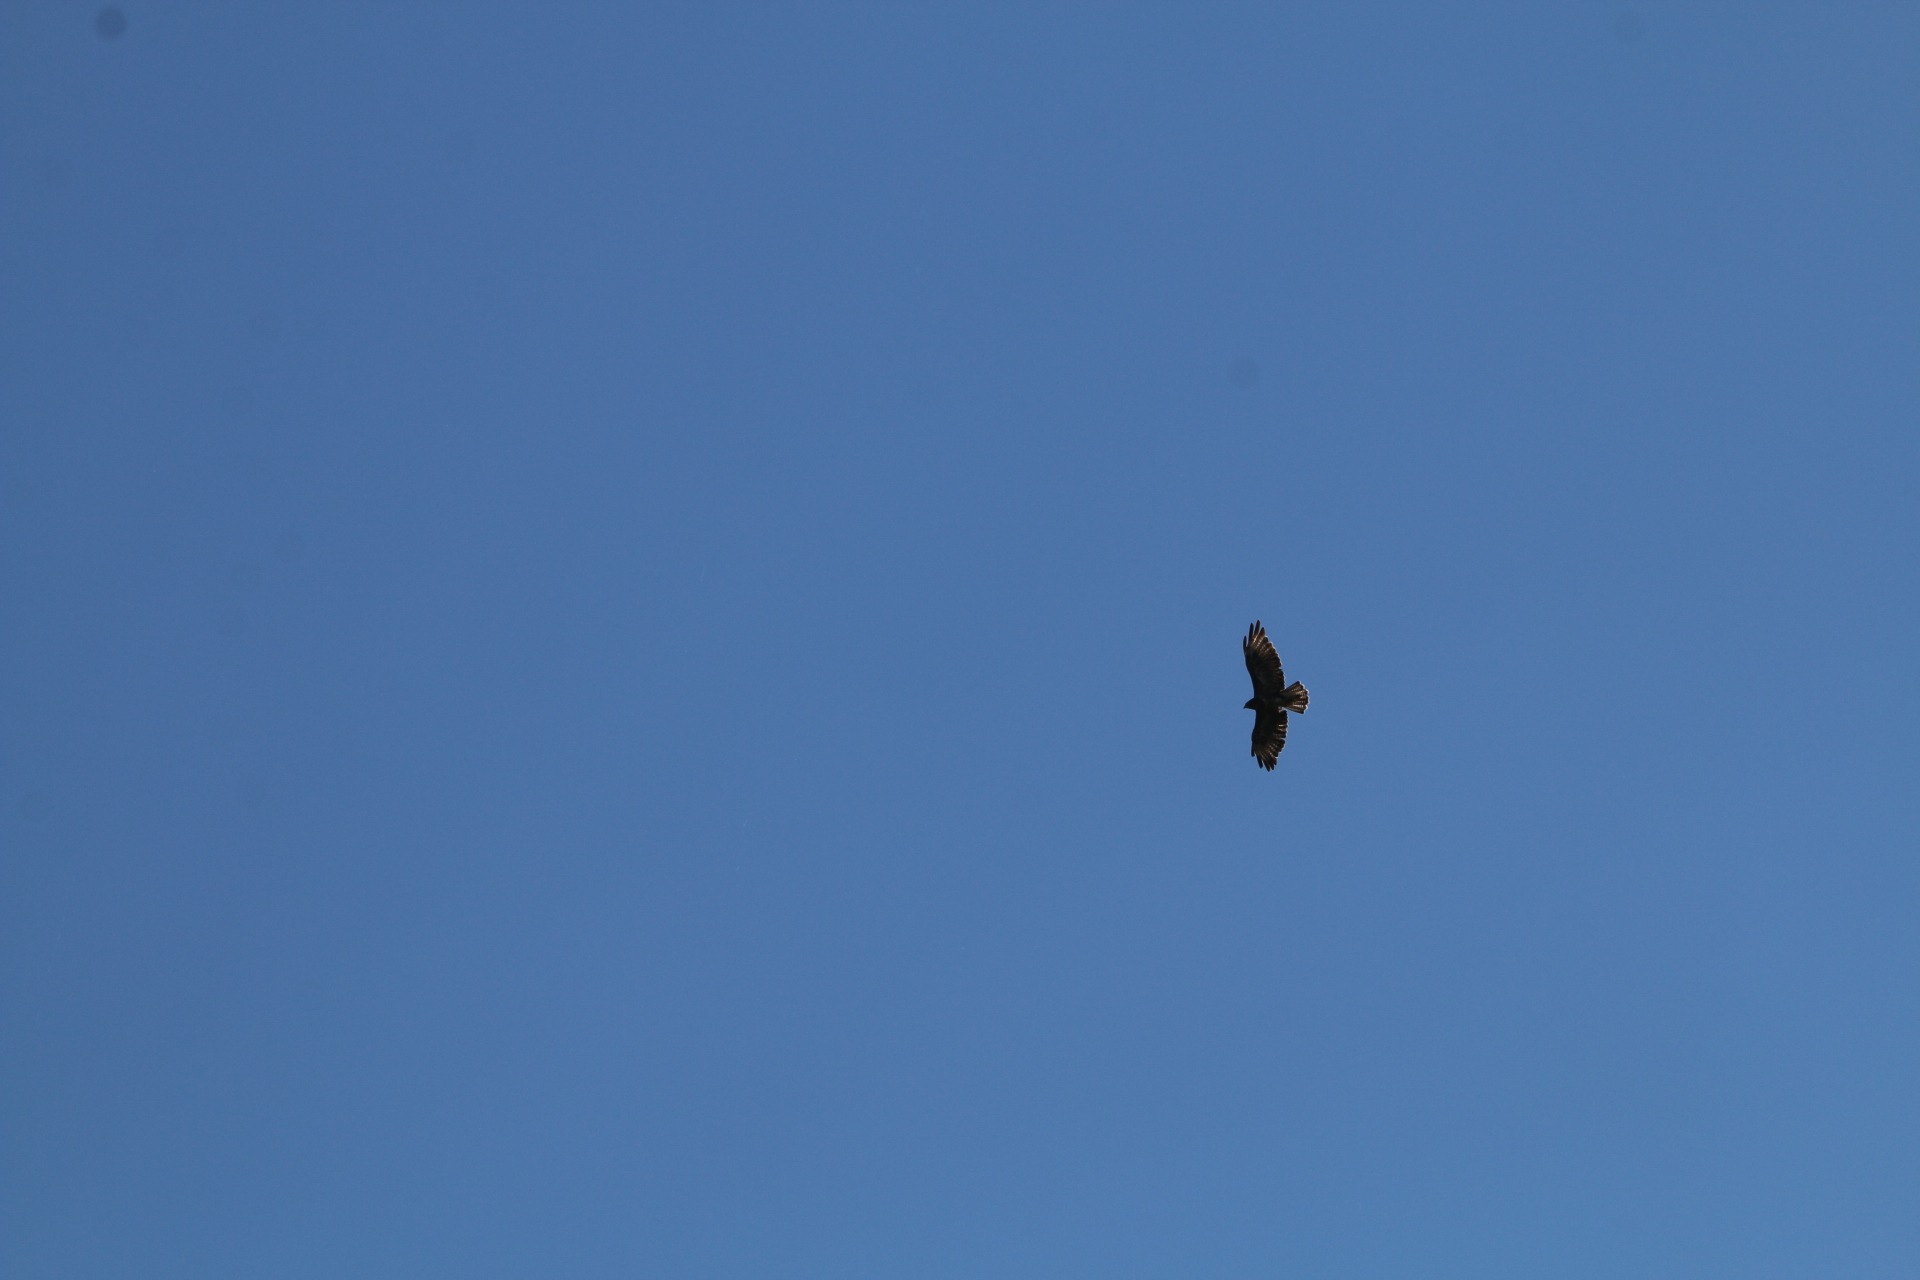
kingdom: Animalia
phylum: Chordata
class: Aves
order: Accipitriformes
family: Accipitridae
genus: Buteo
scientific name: Buteo buteo
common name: Musvåge
